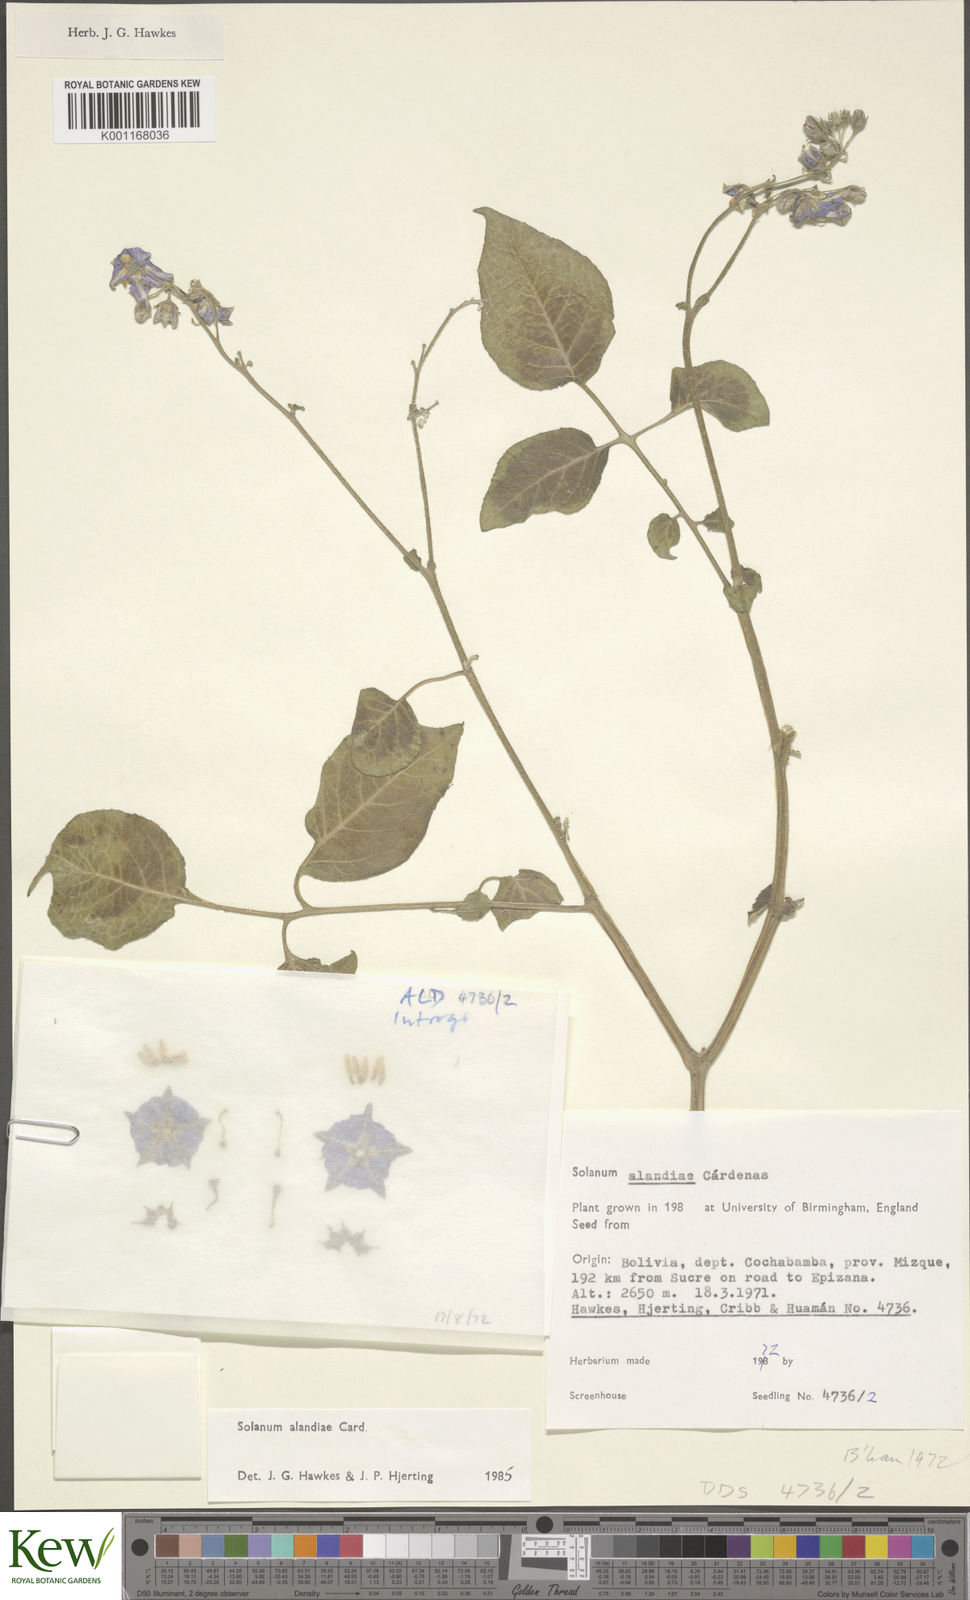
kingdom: Plantae
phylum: Tracheophyta
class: Magnoliopsida
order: Solanales
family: Solanaceae
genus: Solanum
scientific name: Solanum
